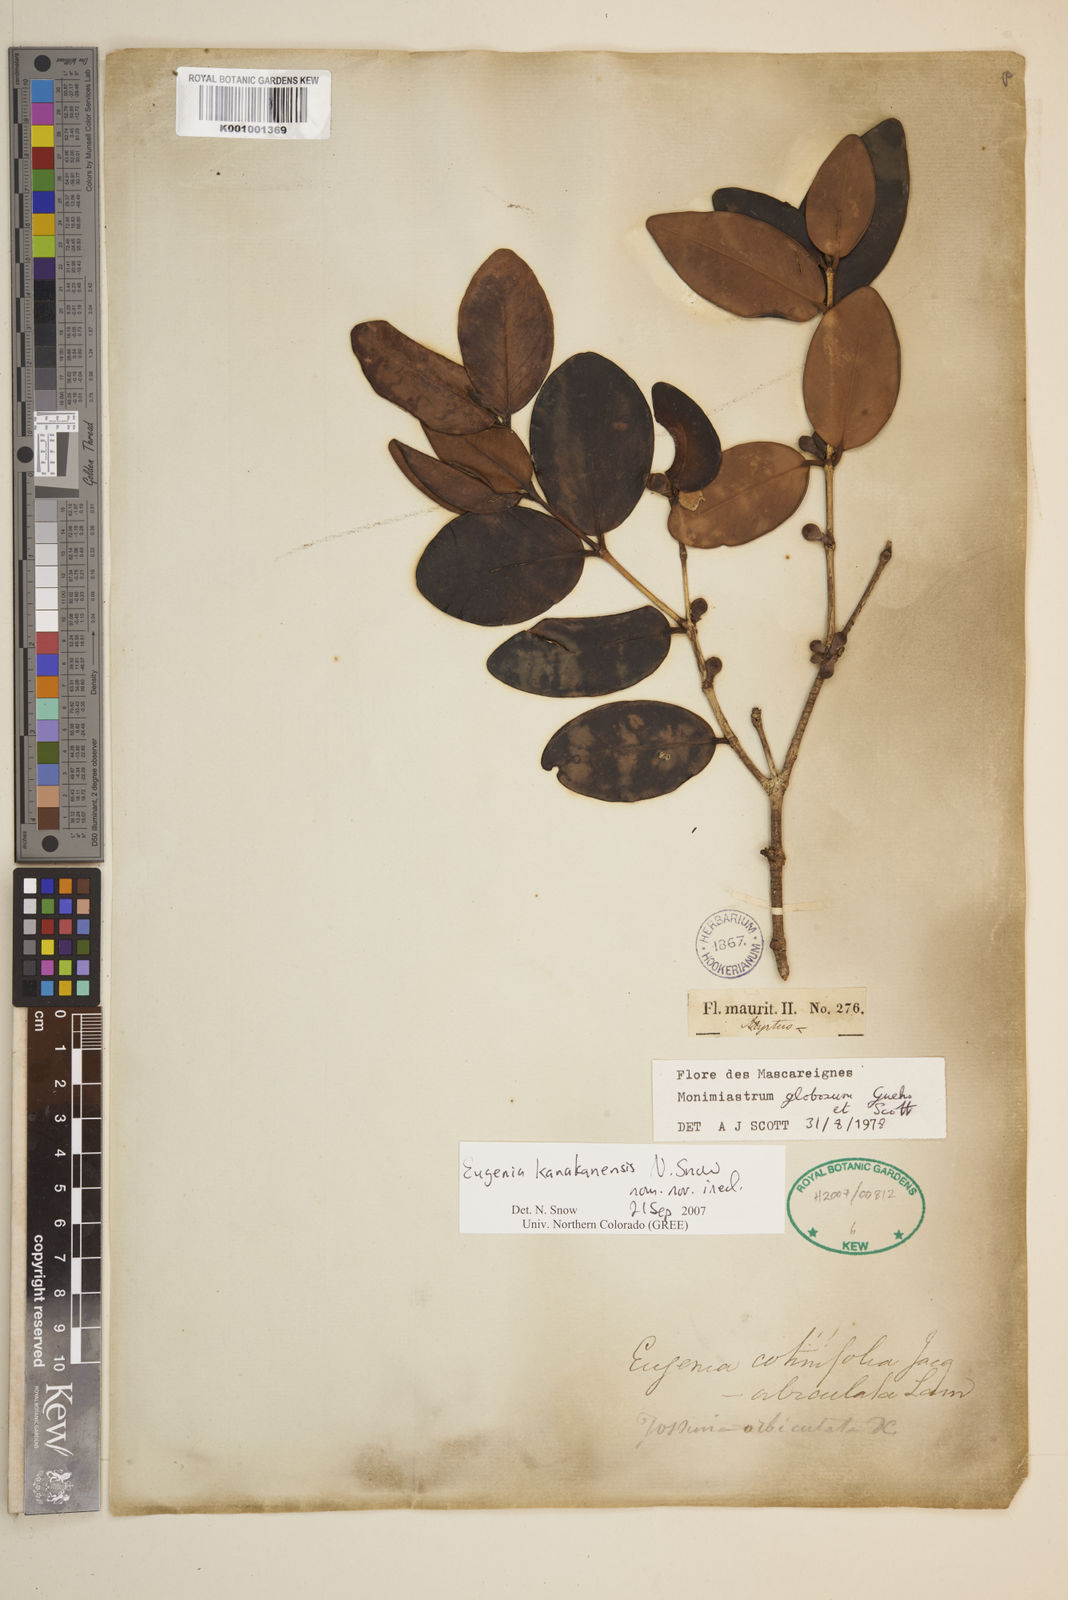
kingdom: Plantae
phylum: Tracheophyta
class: Magnoliopsida
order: Myrtales
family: Myrtaceae
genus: Eugenia
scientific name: Eugenia kanakana
